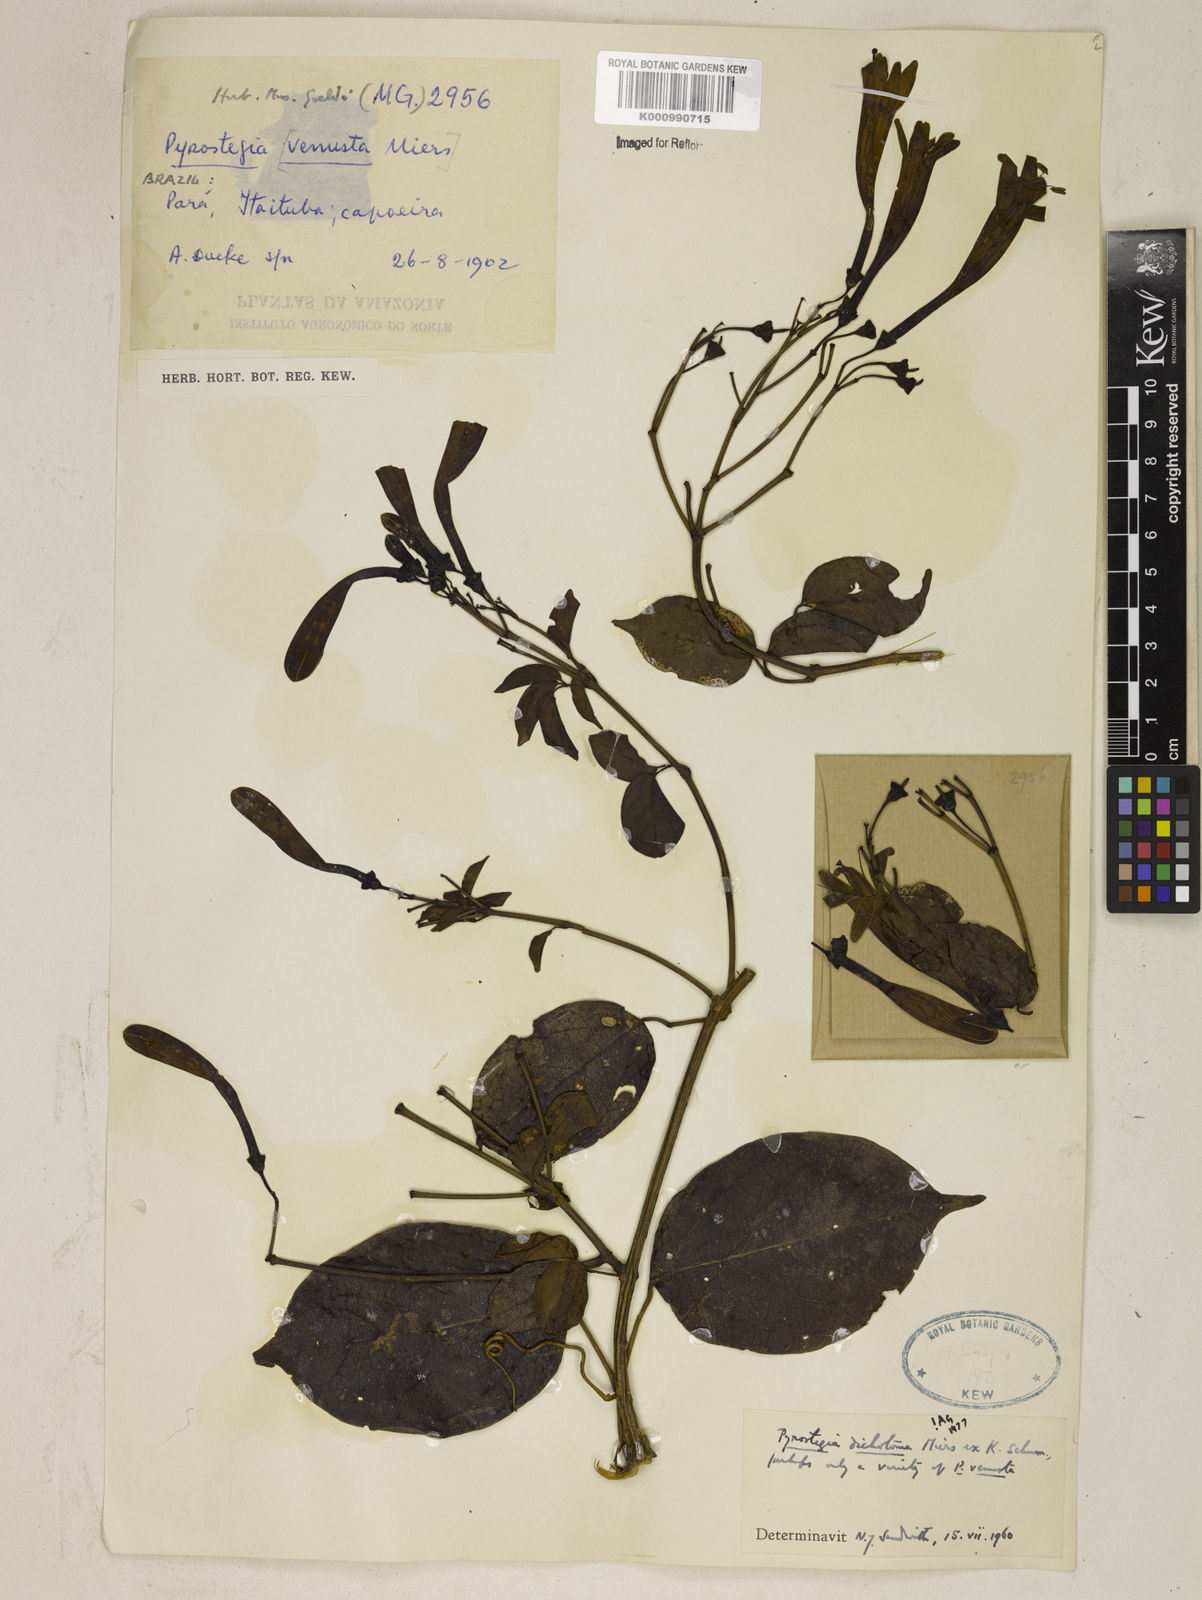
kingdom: Plantae
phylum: Tracheophyta
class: Magnoliopsida
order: Lamiales
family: Bignoniaceae
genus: Pyrostegia
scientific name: Pyrostegia
